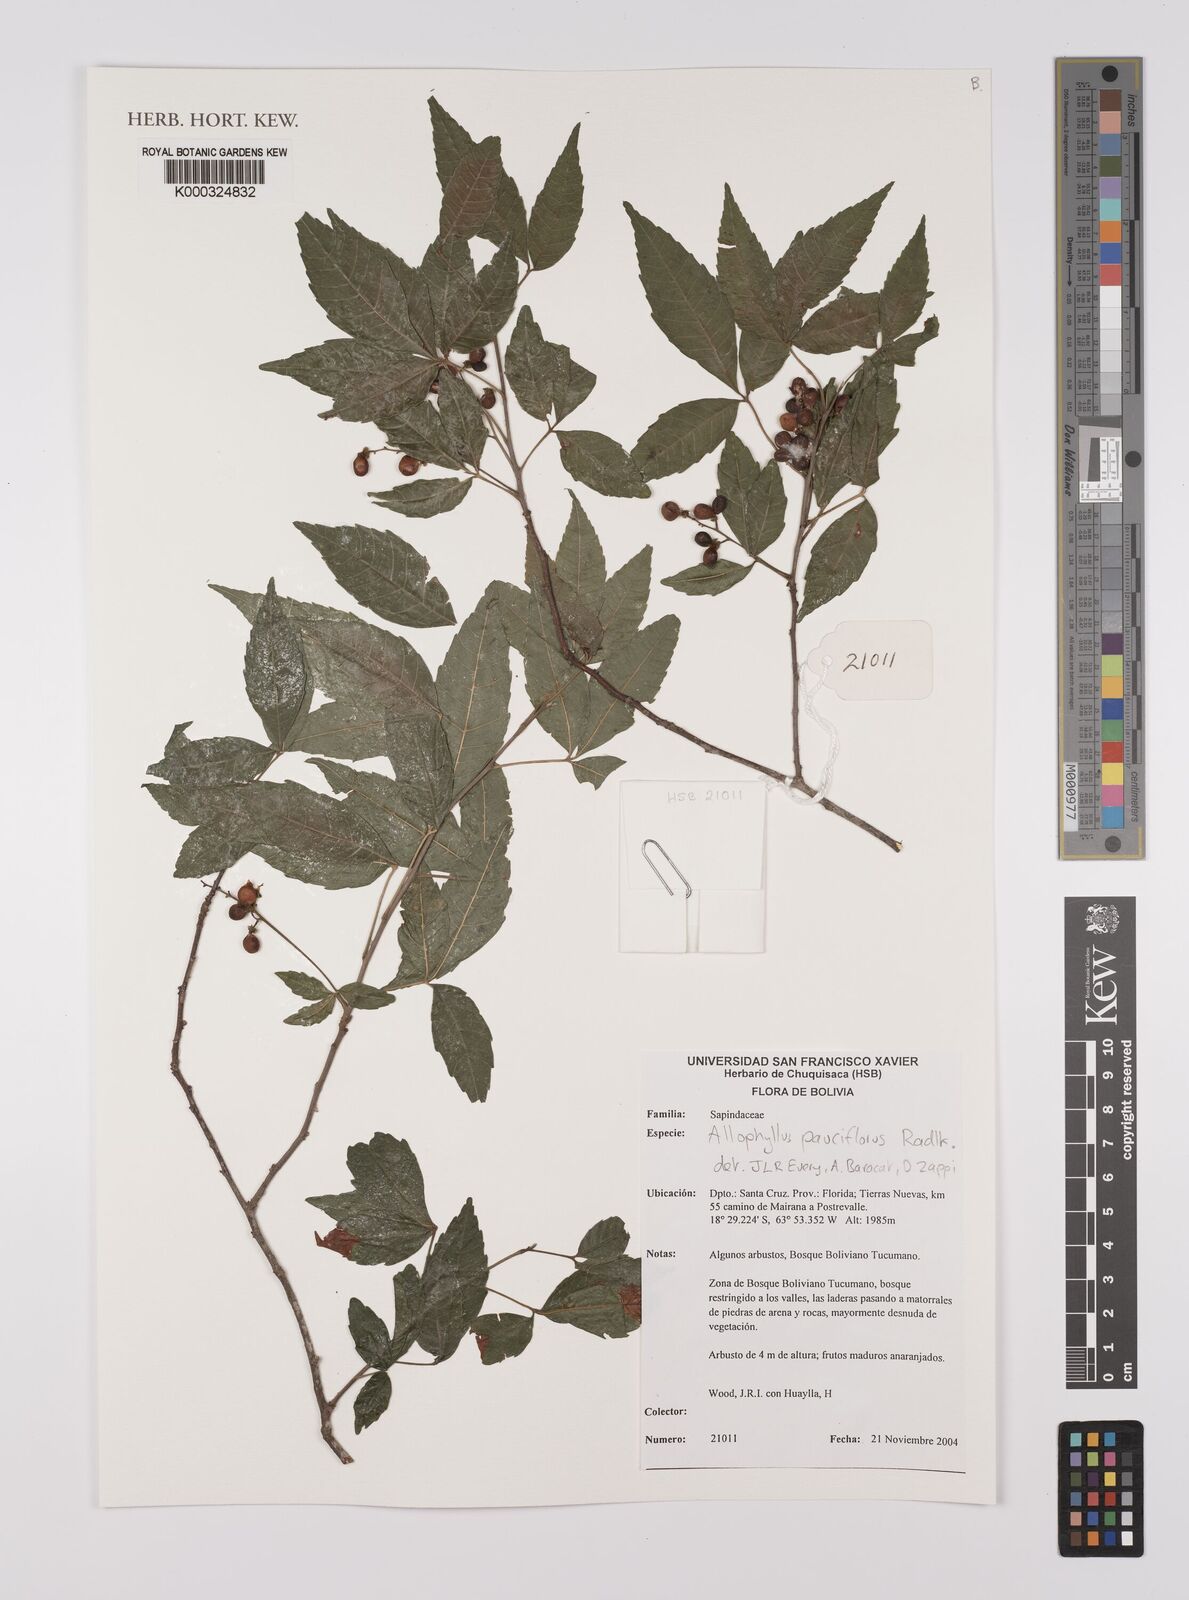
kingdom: Plantae
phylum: Tracheophyta
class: Magnoliopsida
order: Sapindales
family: Sapindaceae
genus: Allophylus
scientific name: Allophylus pauciflorus
